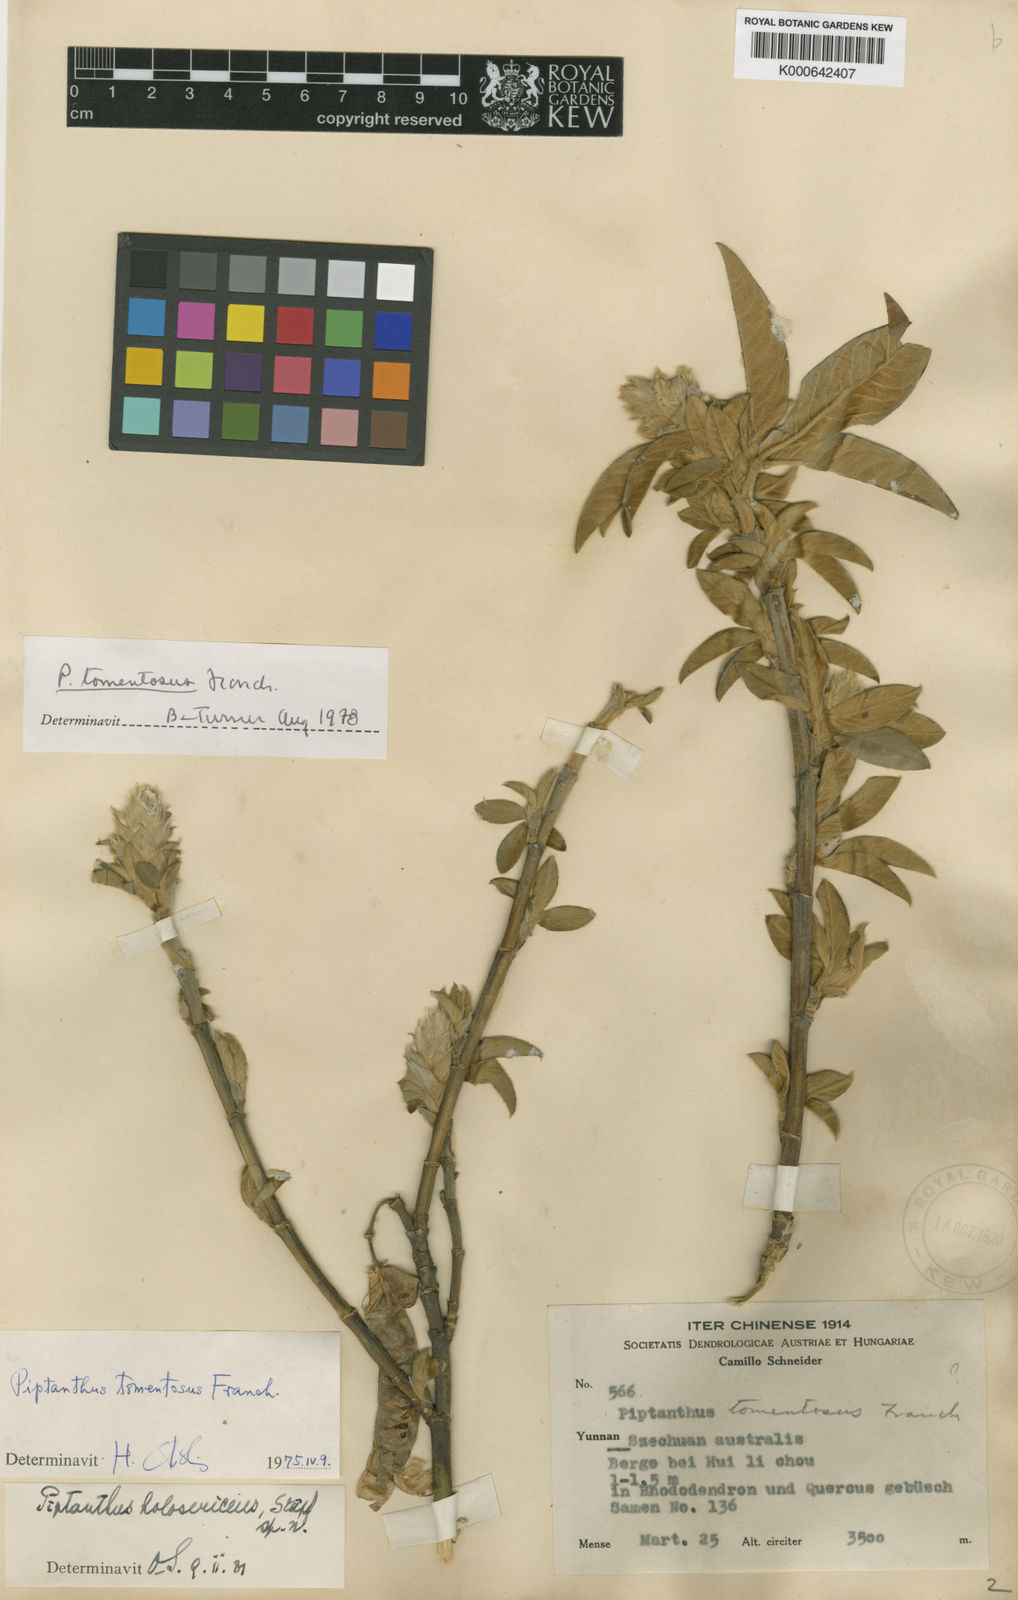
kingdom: Plantae
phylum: Tracheophyta
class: Magnoliopsida
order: Fabales
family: Fabaceae
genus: Piptanthus
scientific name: Piptanthus tomentosus
